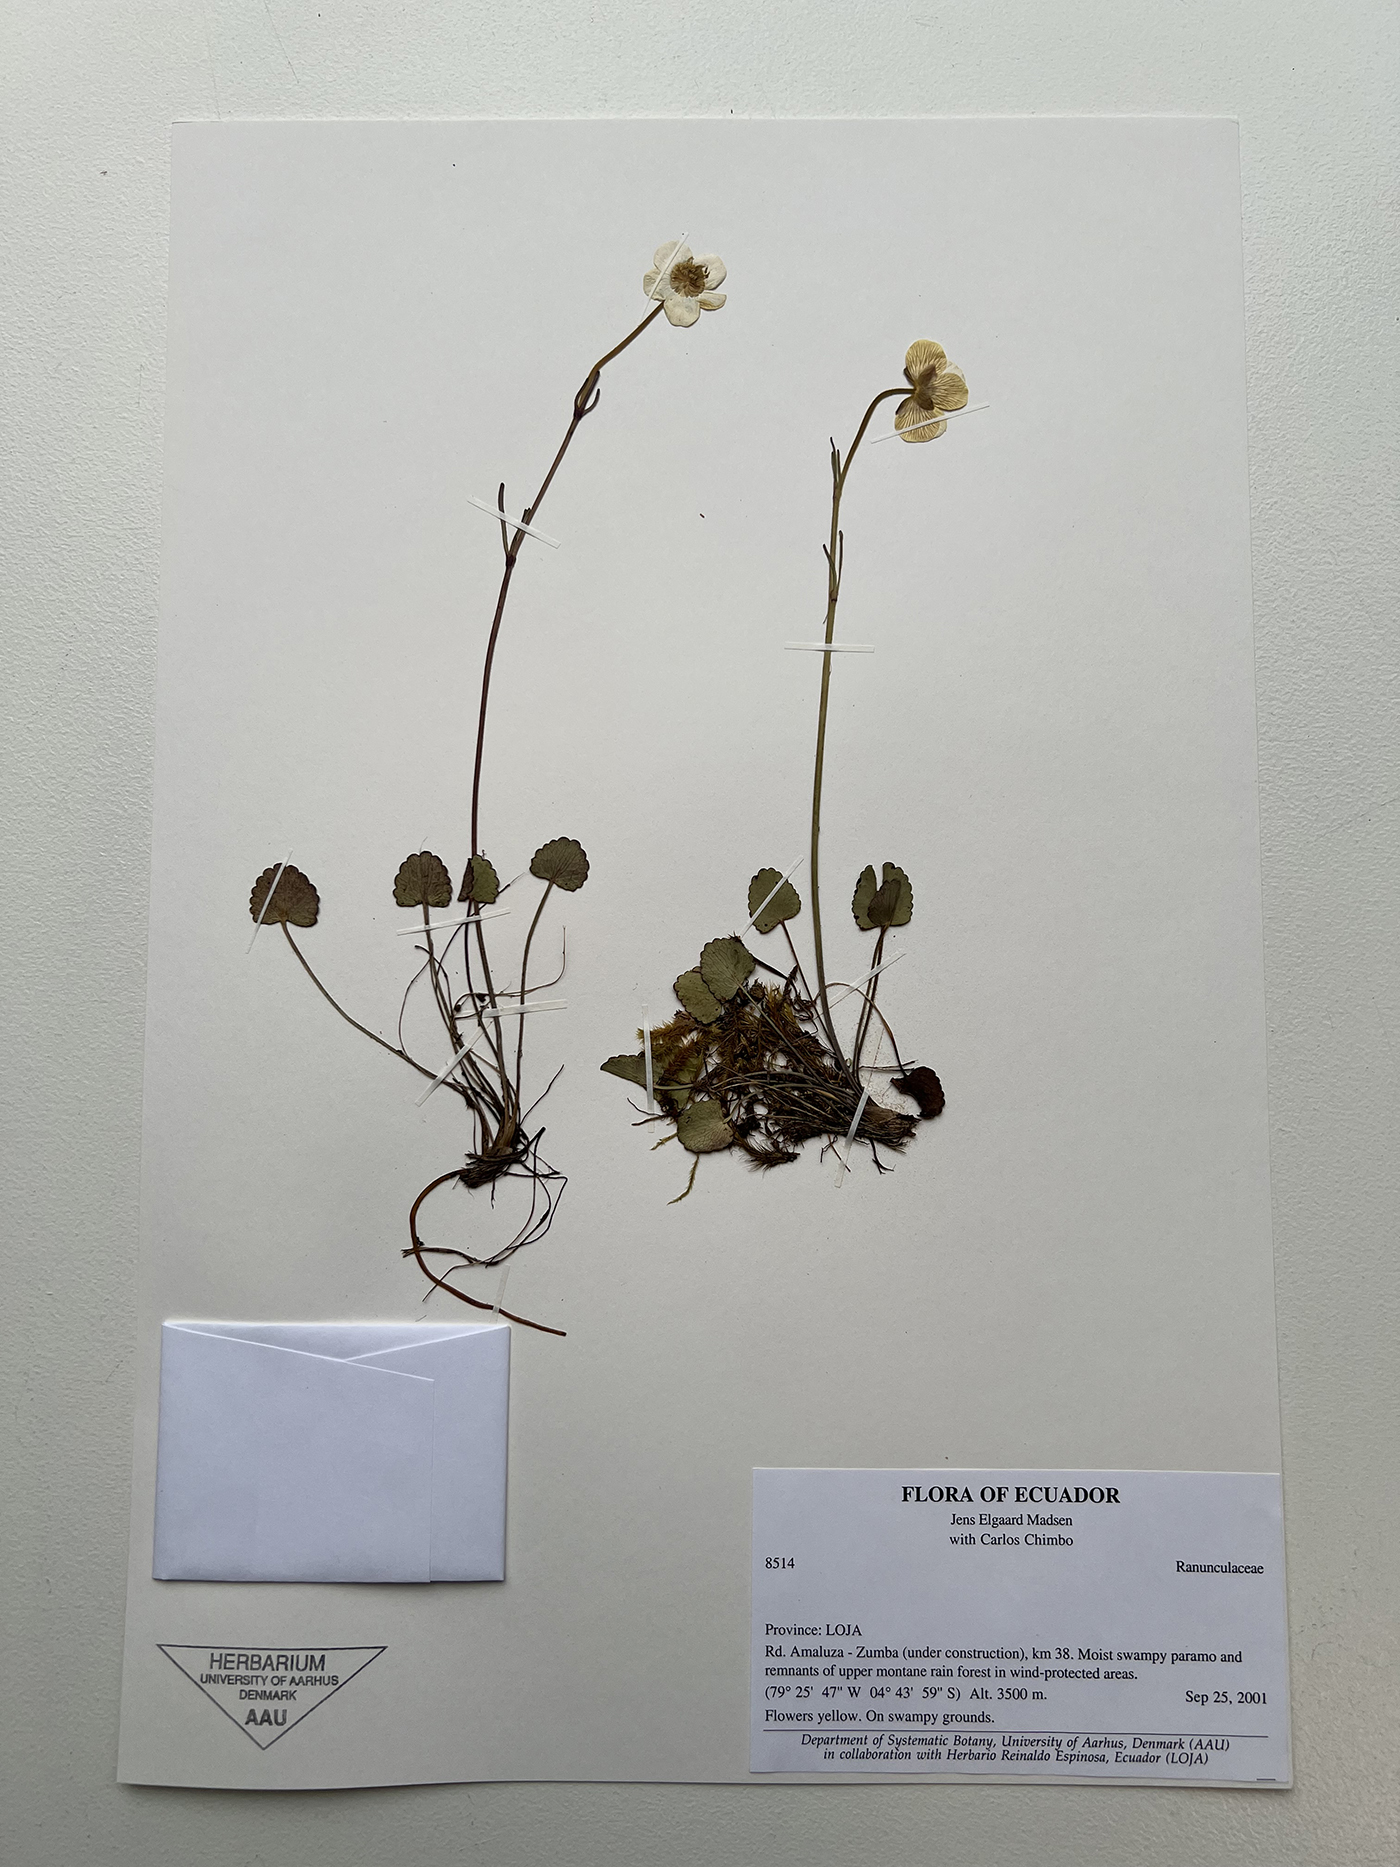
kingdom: Plantae
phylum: Tracheophyta
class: Magnoliopsida
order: Ranunculales
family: Ranunculaceae
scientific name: Ranunculaceae
